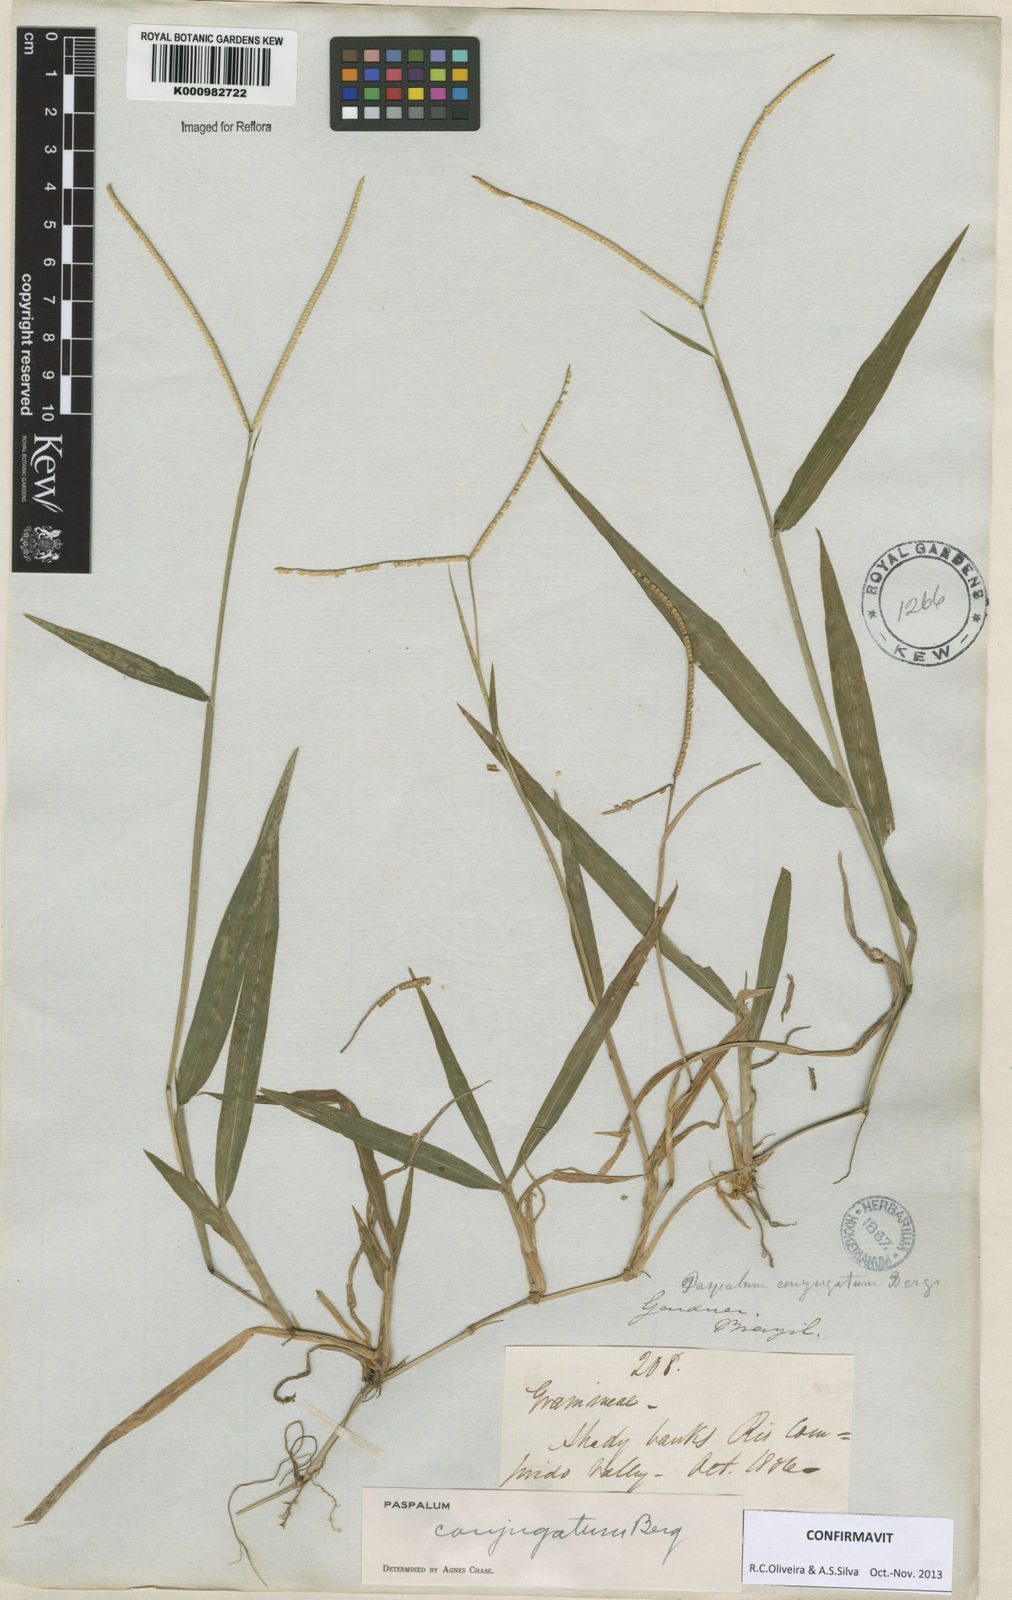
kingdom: Plantae
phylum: Tracheophyta
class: Liliopsida
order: Poales
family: Poaceae
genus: Paspalum
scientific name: Paspalum conjugatum
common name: Hilograss
